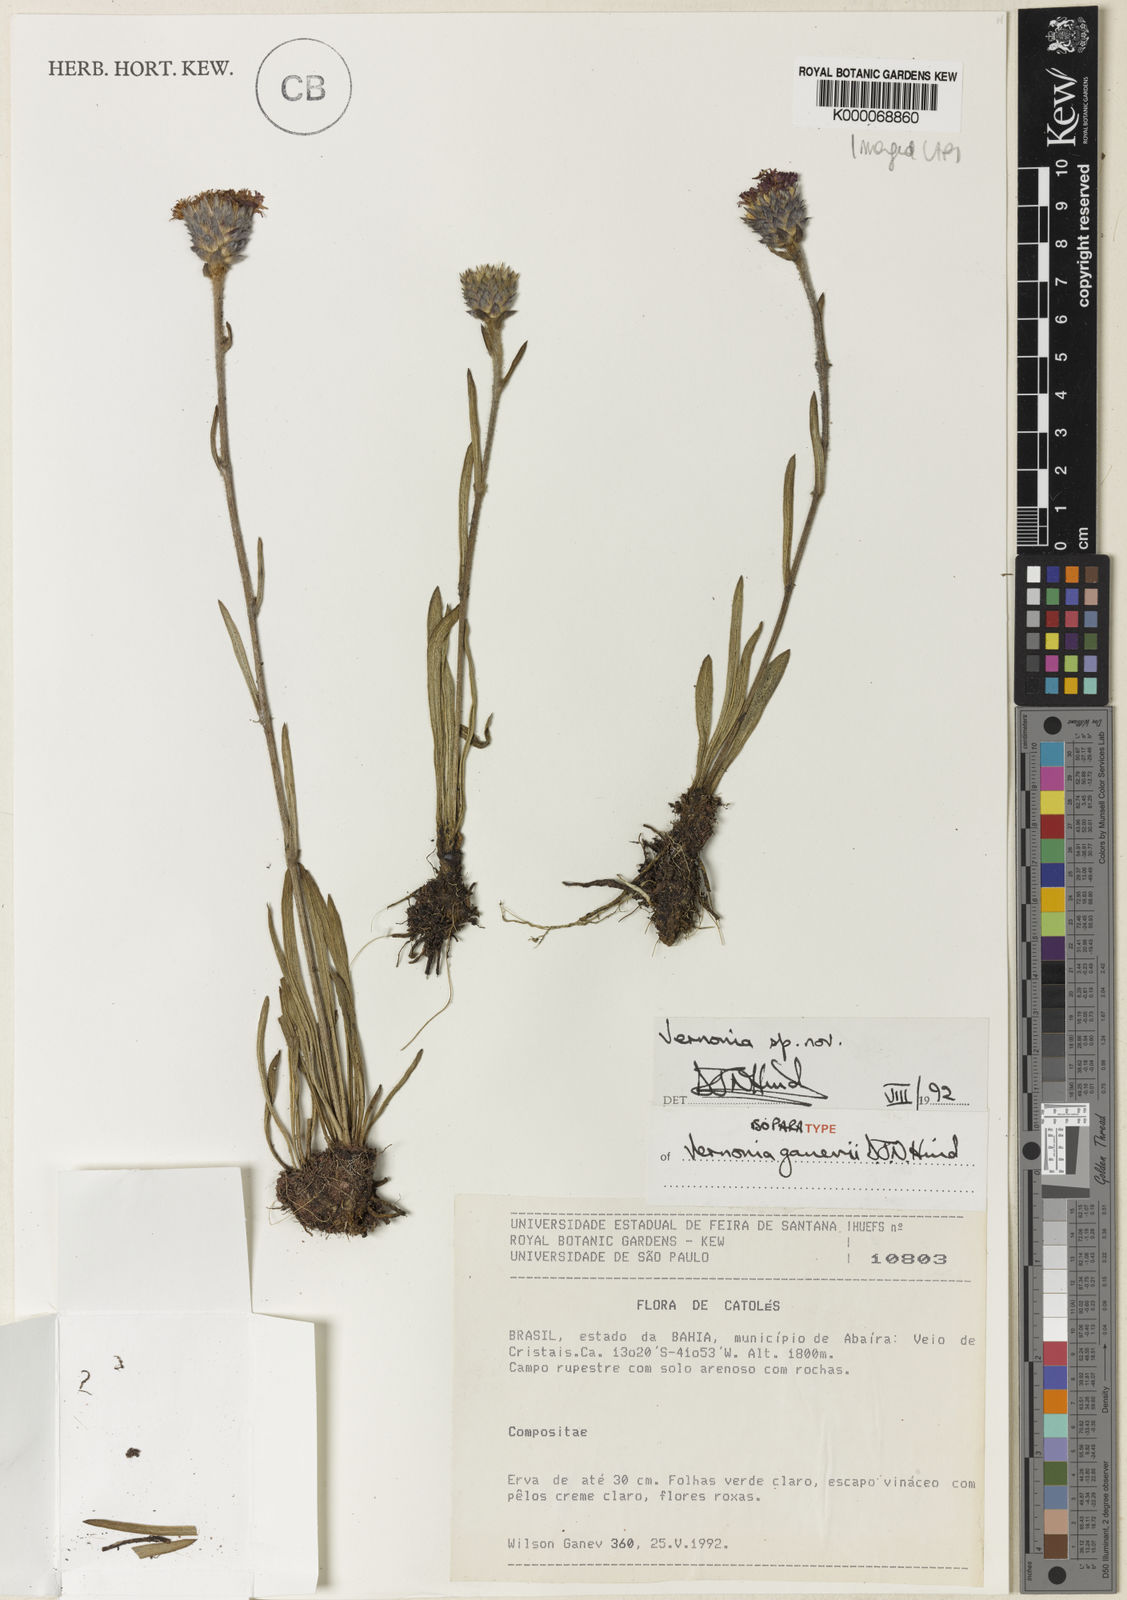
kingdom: Plantae
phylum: Tracheophyta
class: Magnoliopsida
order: Asterales
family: Asteraceae
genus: Vernonia
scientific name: Vernonia ganevii
